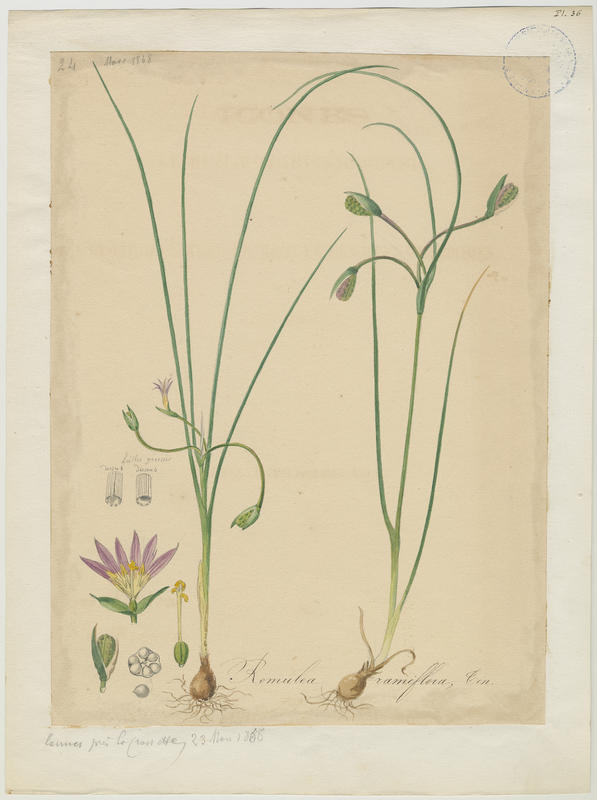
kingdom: Plantae
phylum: Tracheophyta
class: Liliopsida
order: Asparagales
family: Iridaceae
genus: Romulea
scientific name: Romulea ramiflora
